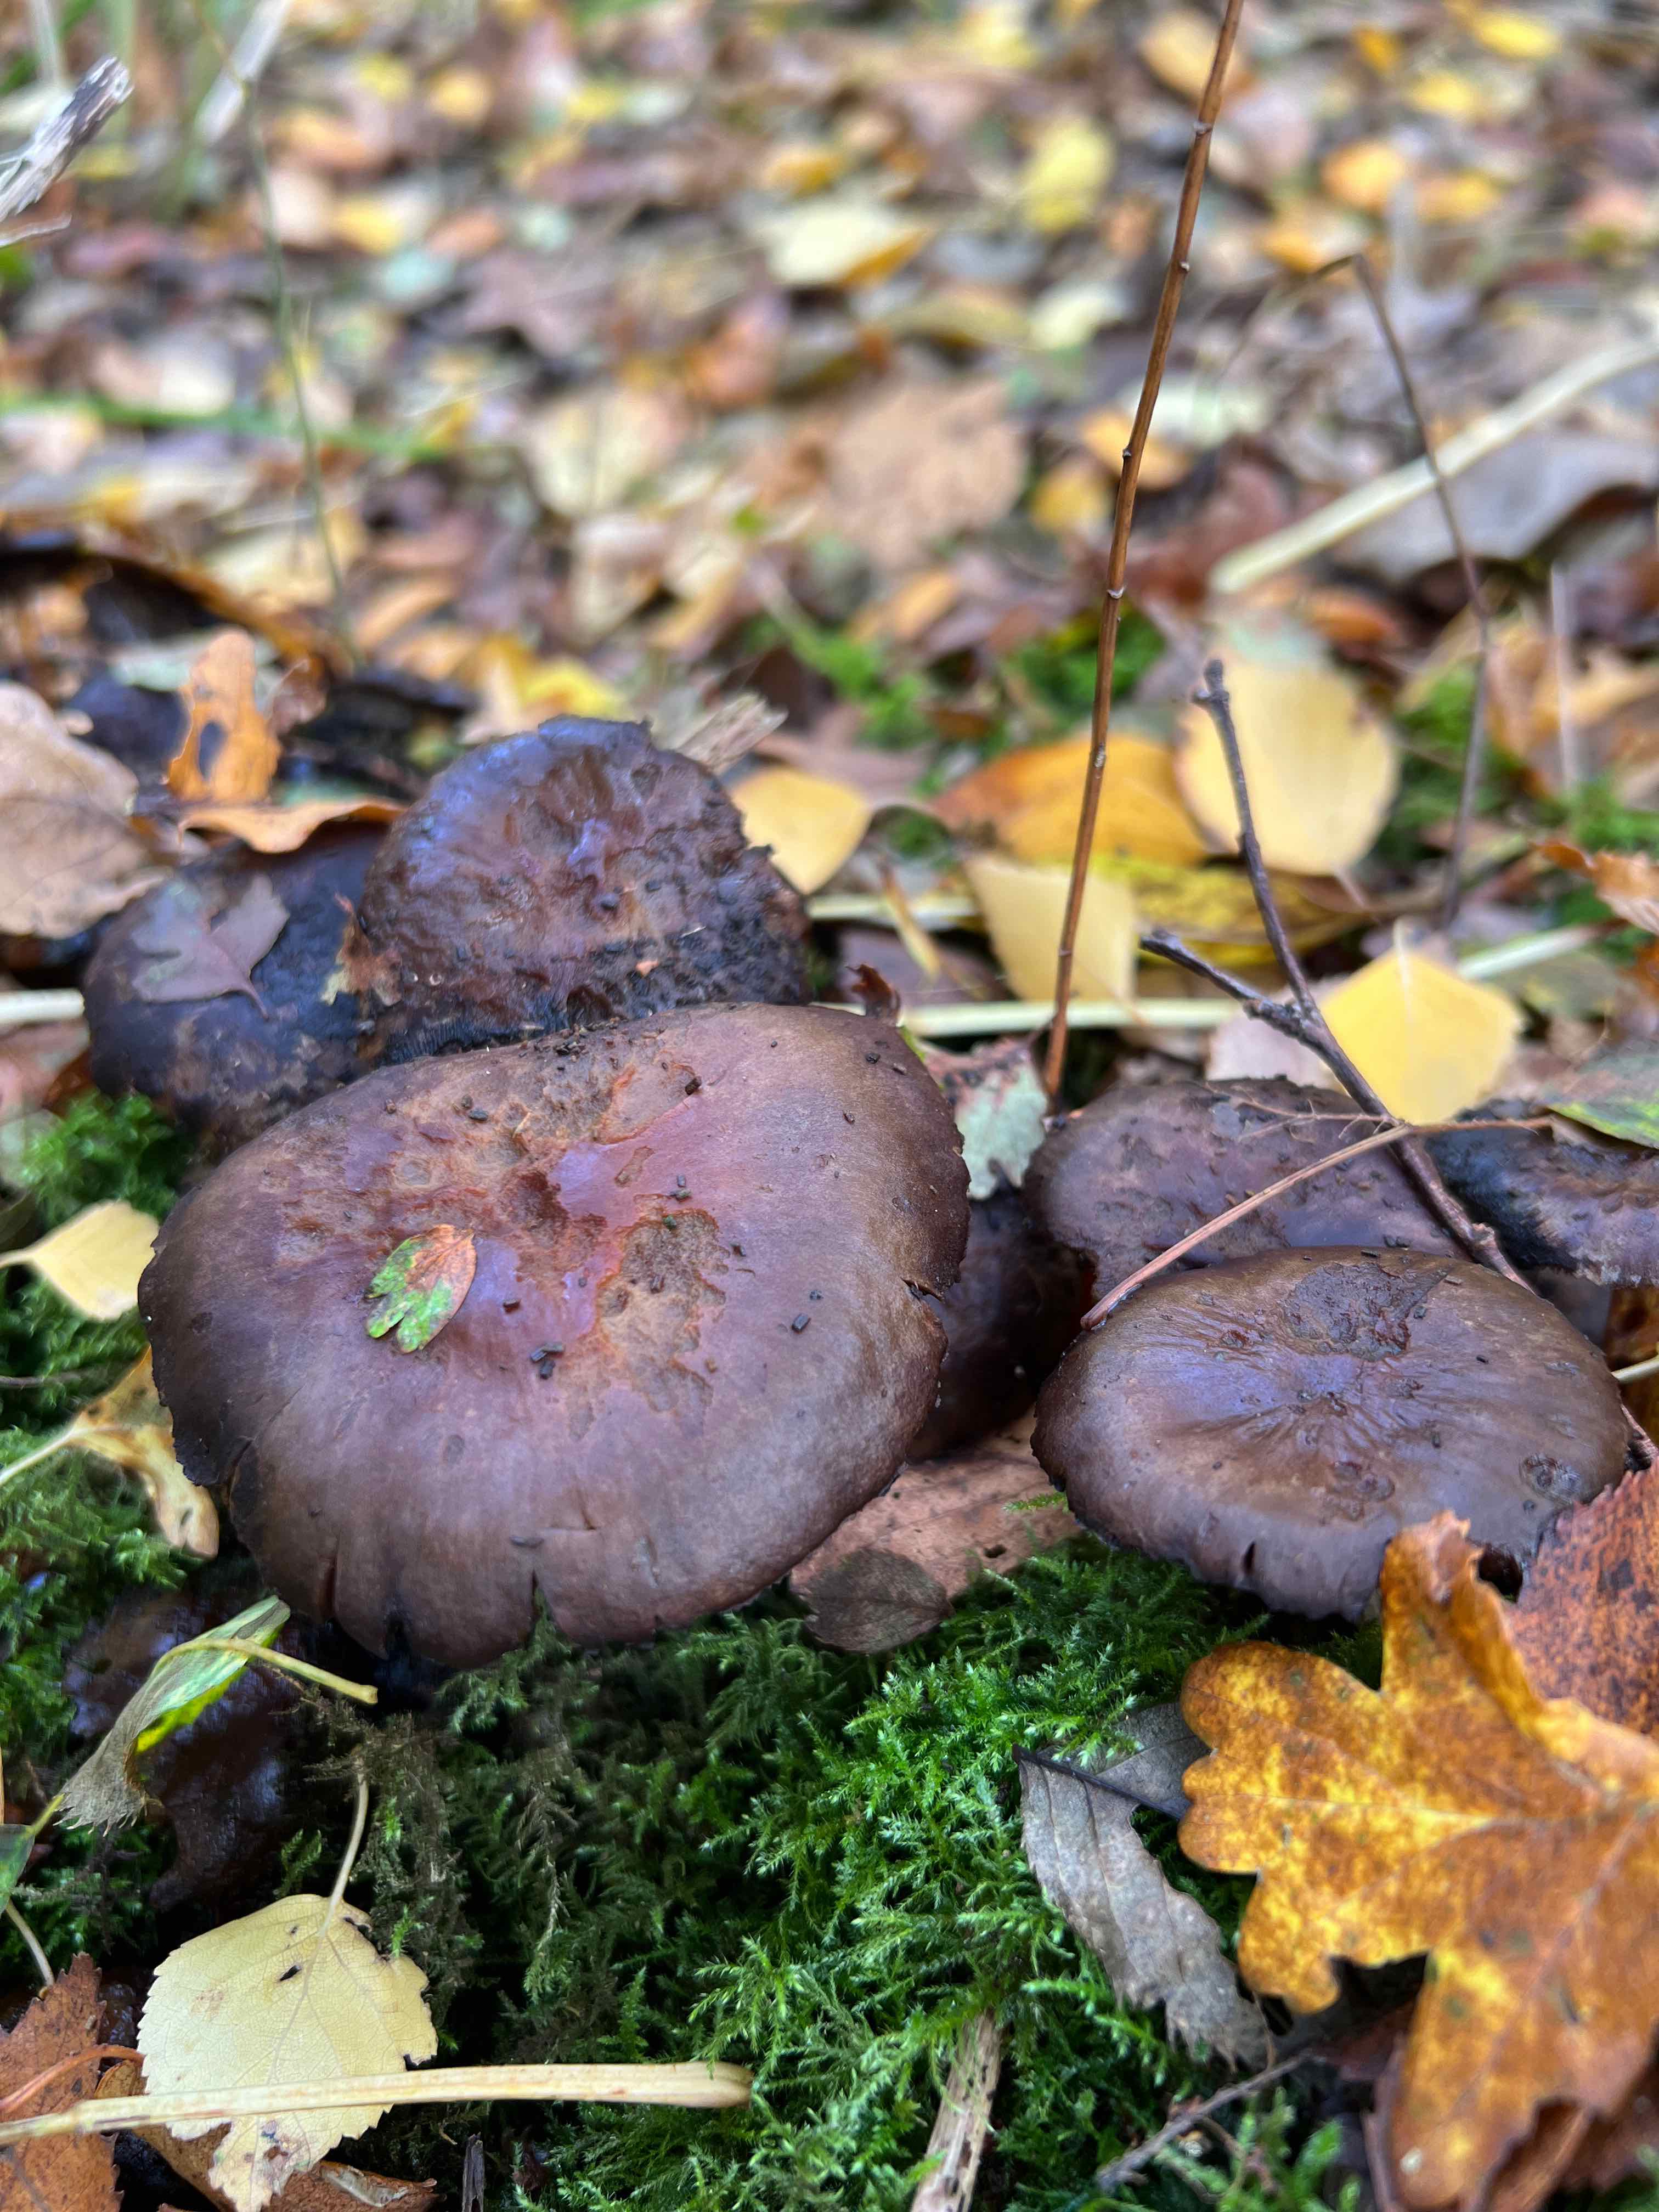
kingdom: Fungi
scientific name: Fungi
